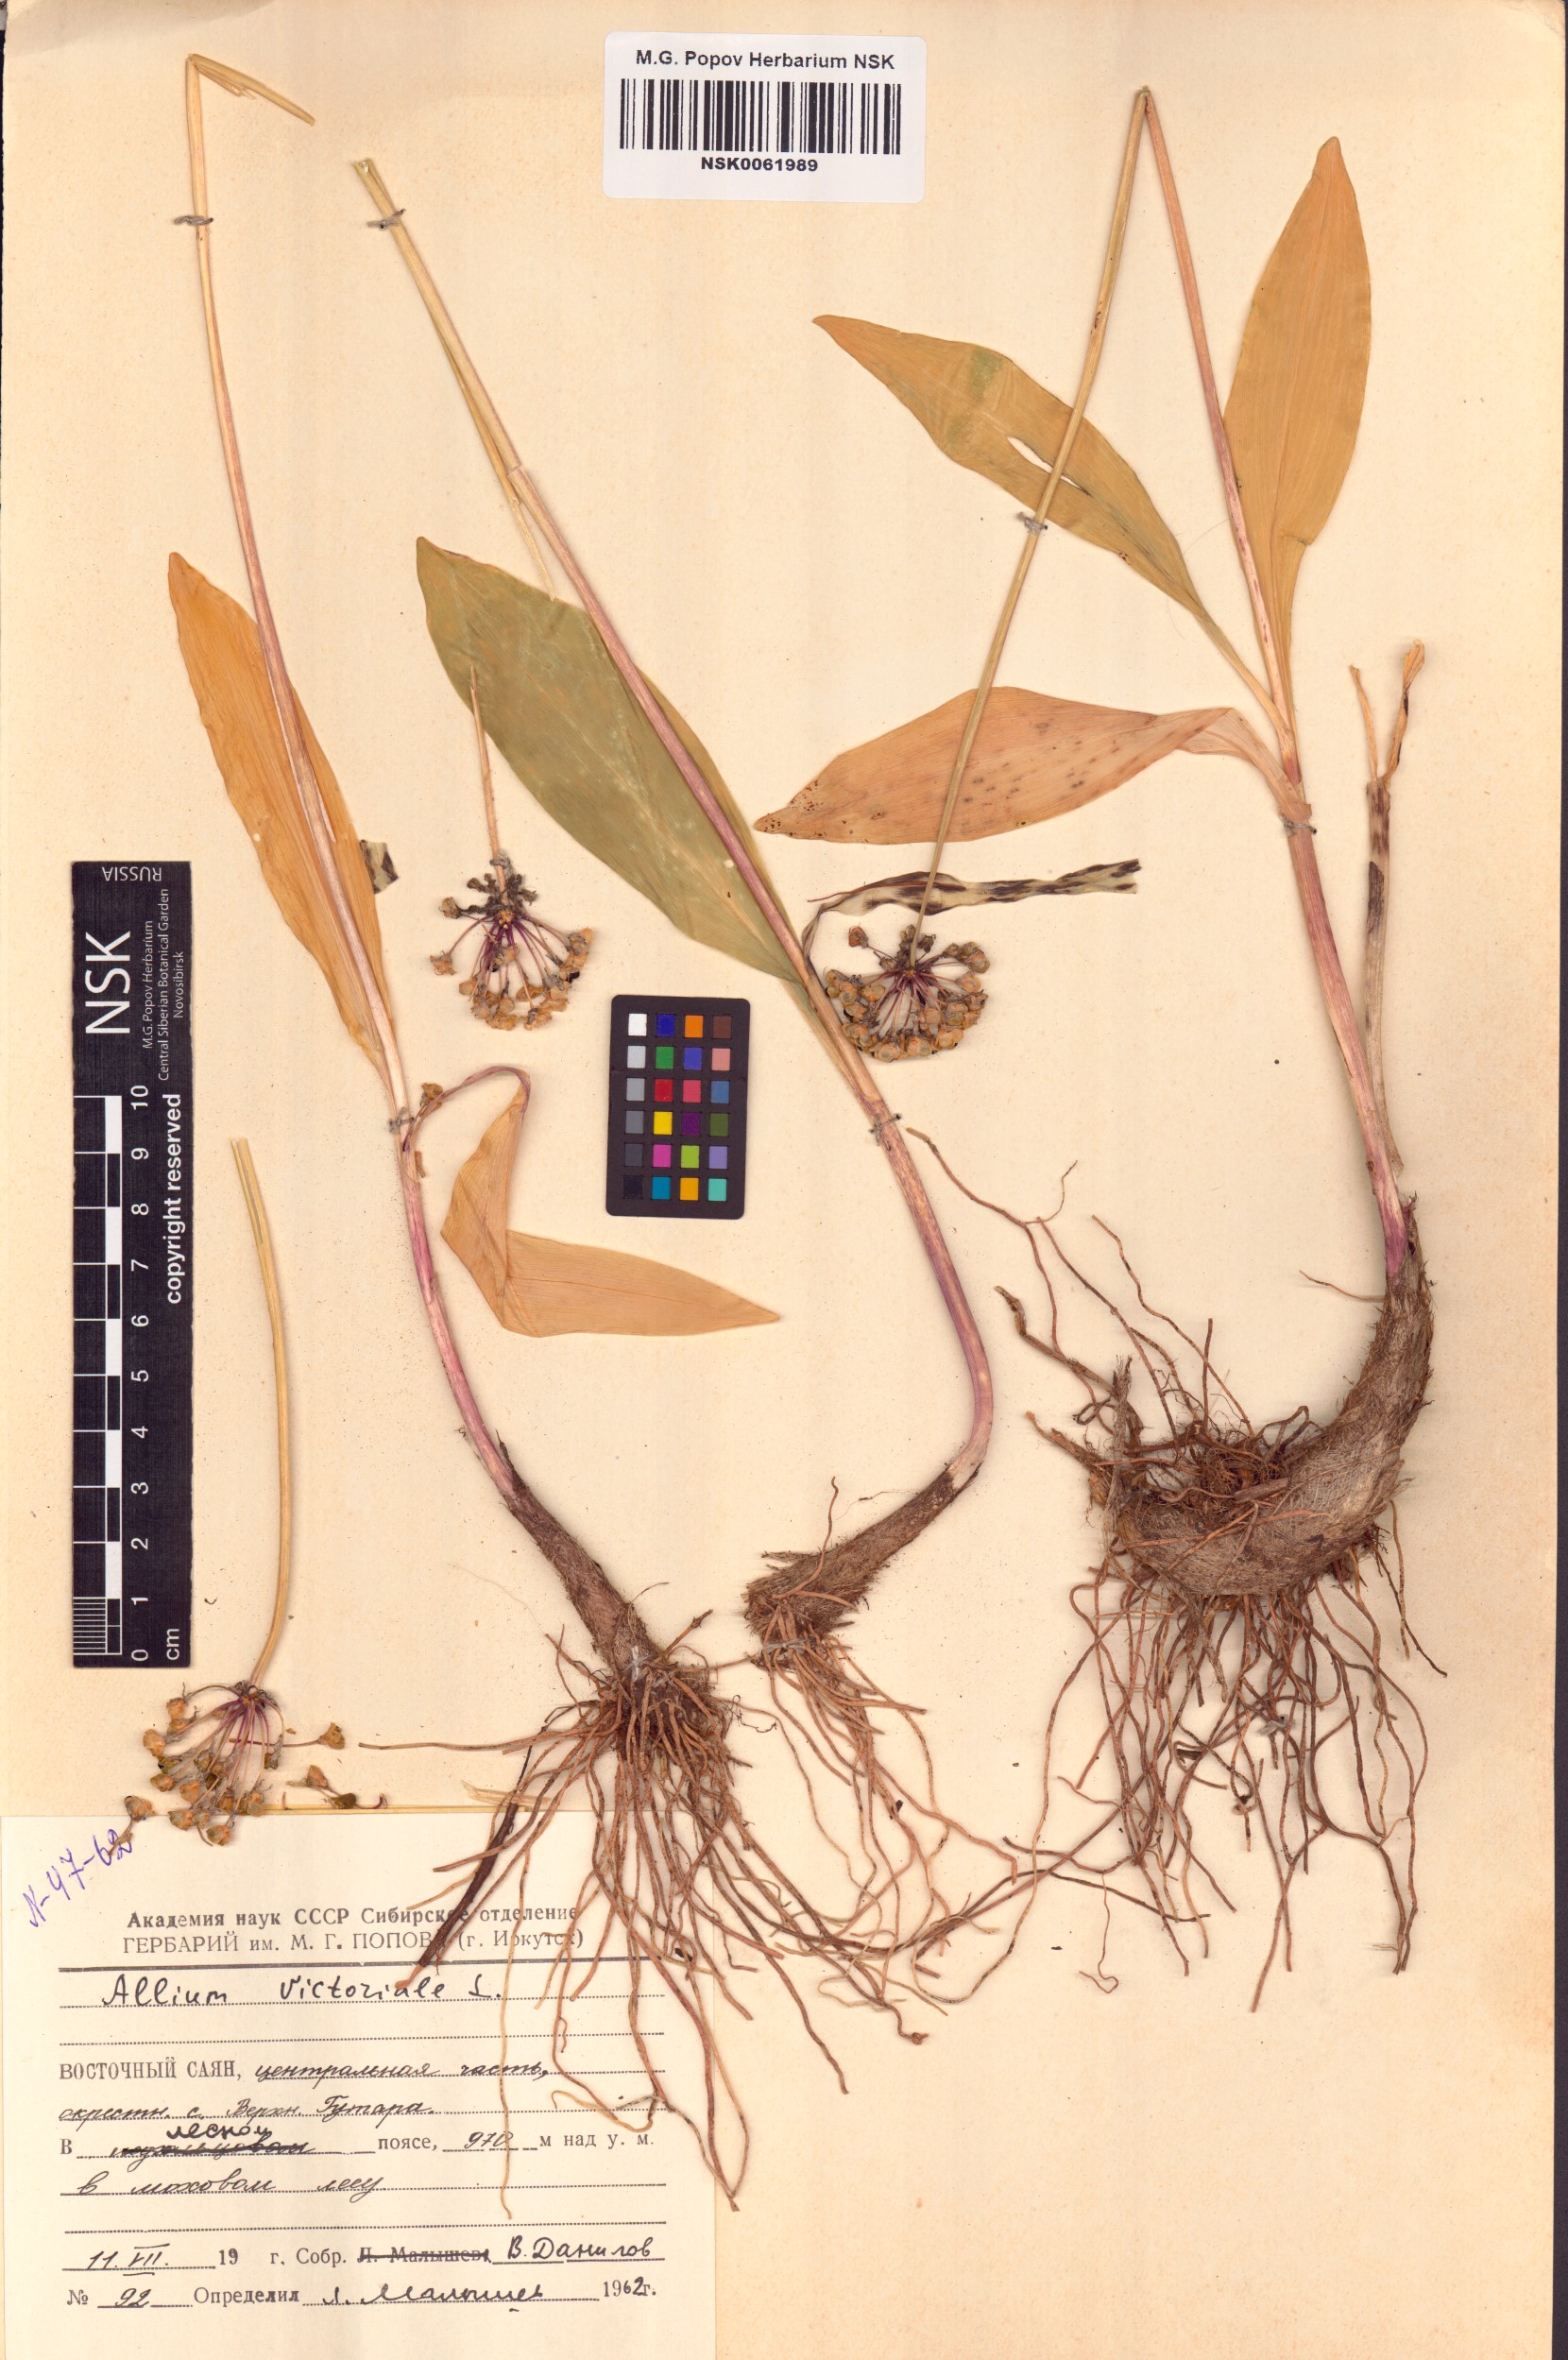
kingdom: Plantae
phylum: Tracheophyta
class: Liliopsida
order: Asparagales
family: Amaryllidaceae
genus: Allium
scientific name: Allium victorialis
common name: Alpine leek
